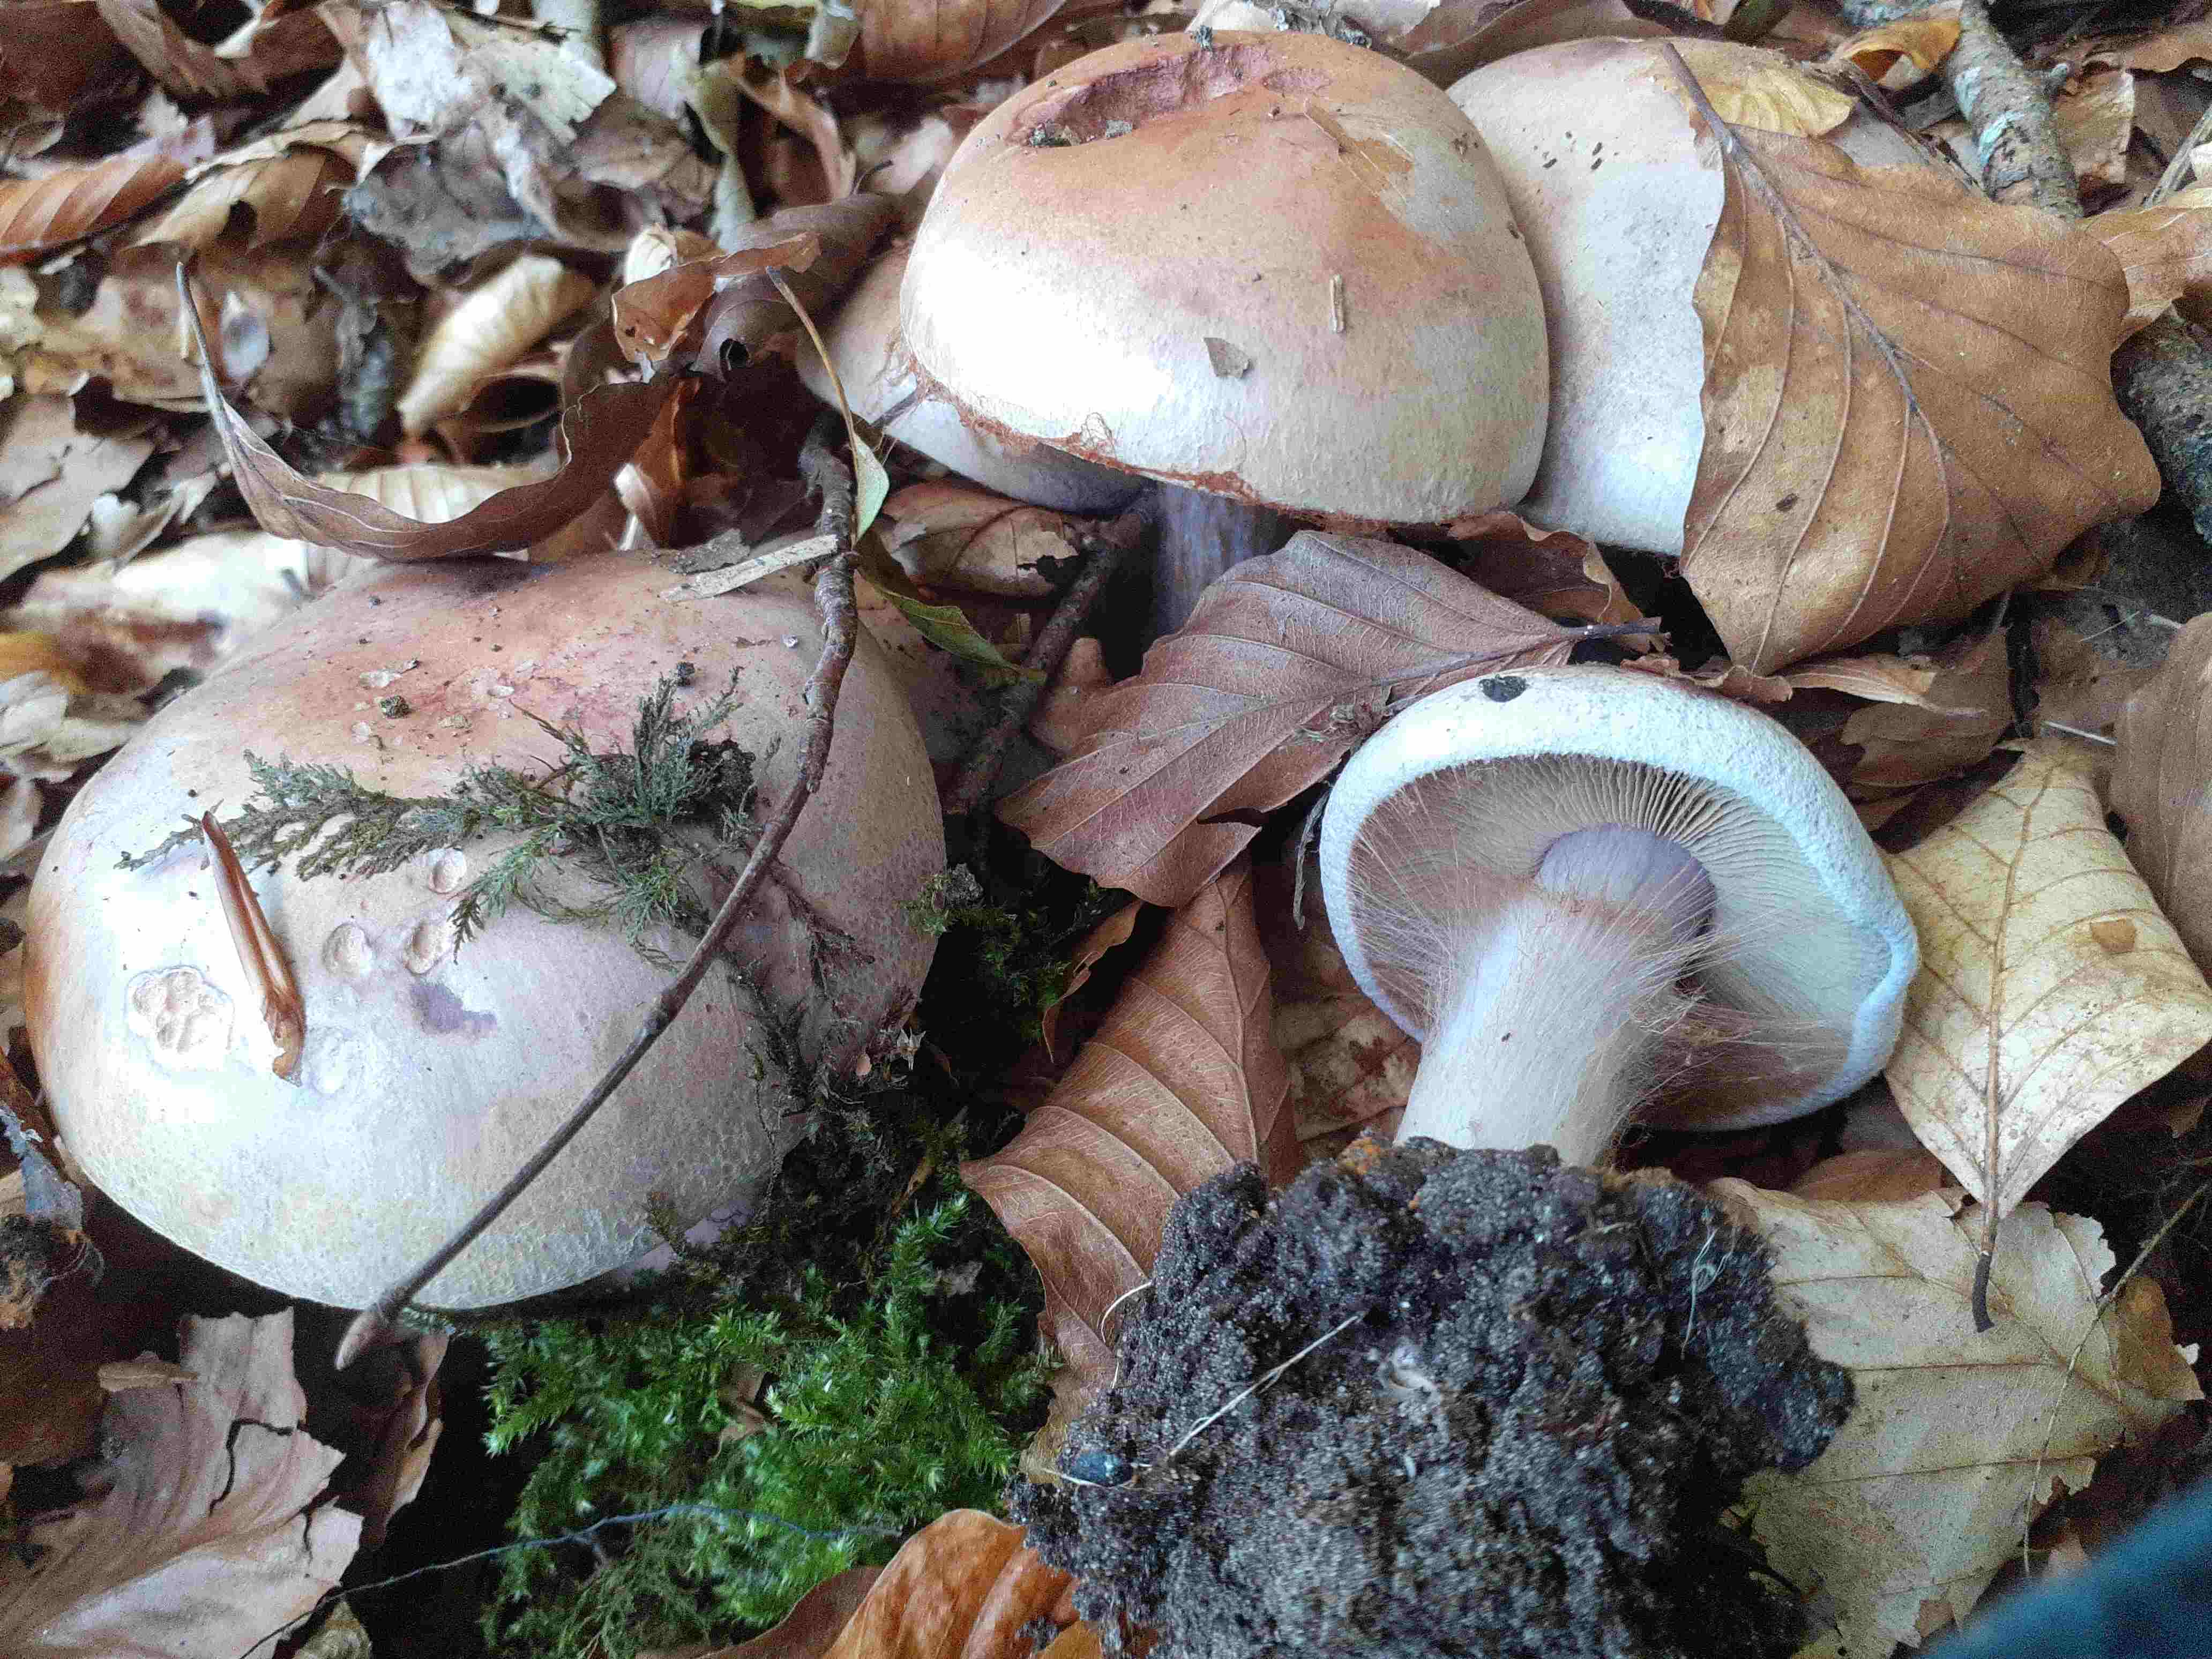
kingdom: Fungi
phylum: Basidiomycota
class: Agaricomycetes
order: Agaricales
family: Cortinariaceae
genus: Calonarius
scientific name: Calonarius rufo-olivaceus
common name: firefarvet slørhat
